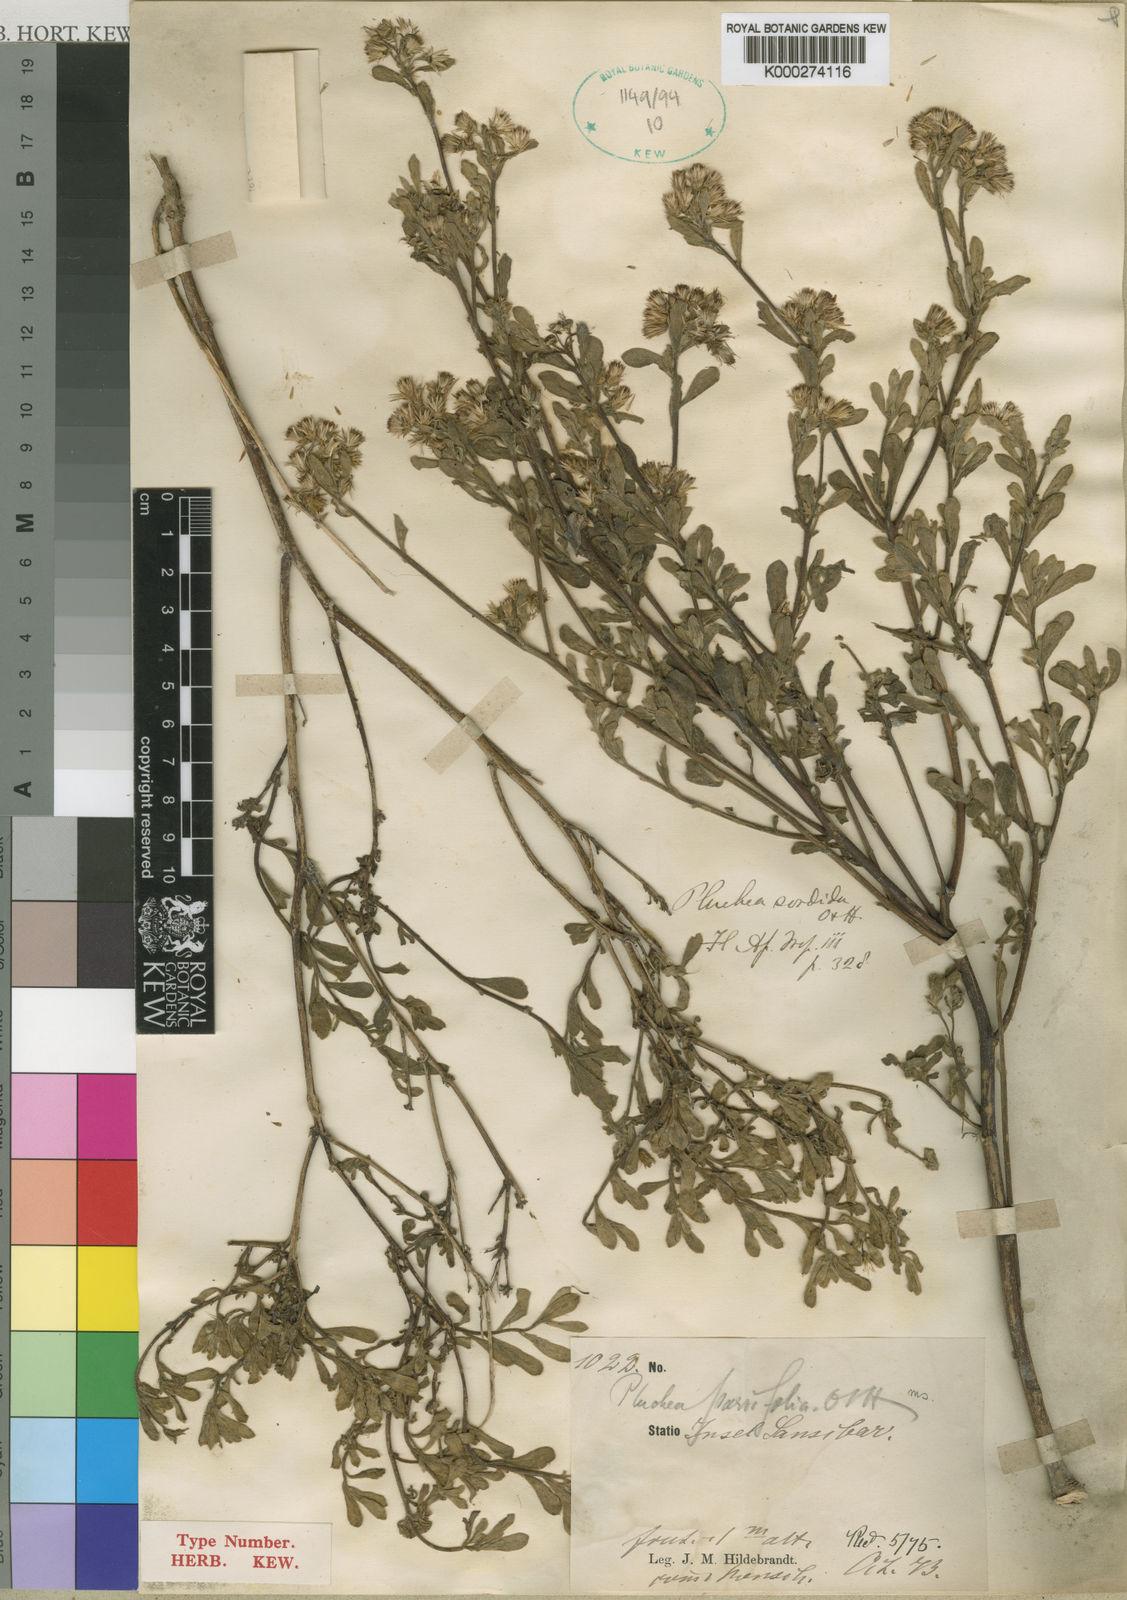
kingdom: Plantae
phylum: Tracheophyta
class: Magnoliopsida
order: Asterales
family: Asteraceae
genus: Pluchea
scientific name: Pluchea sordida
